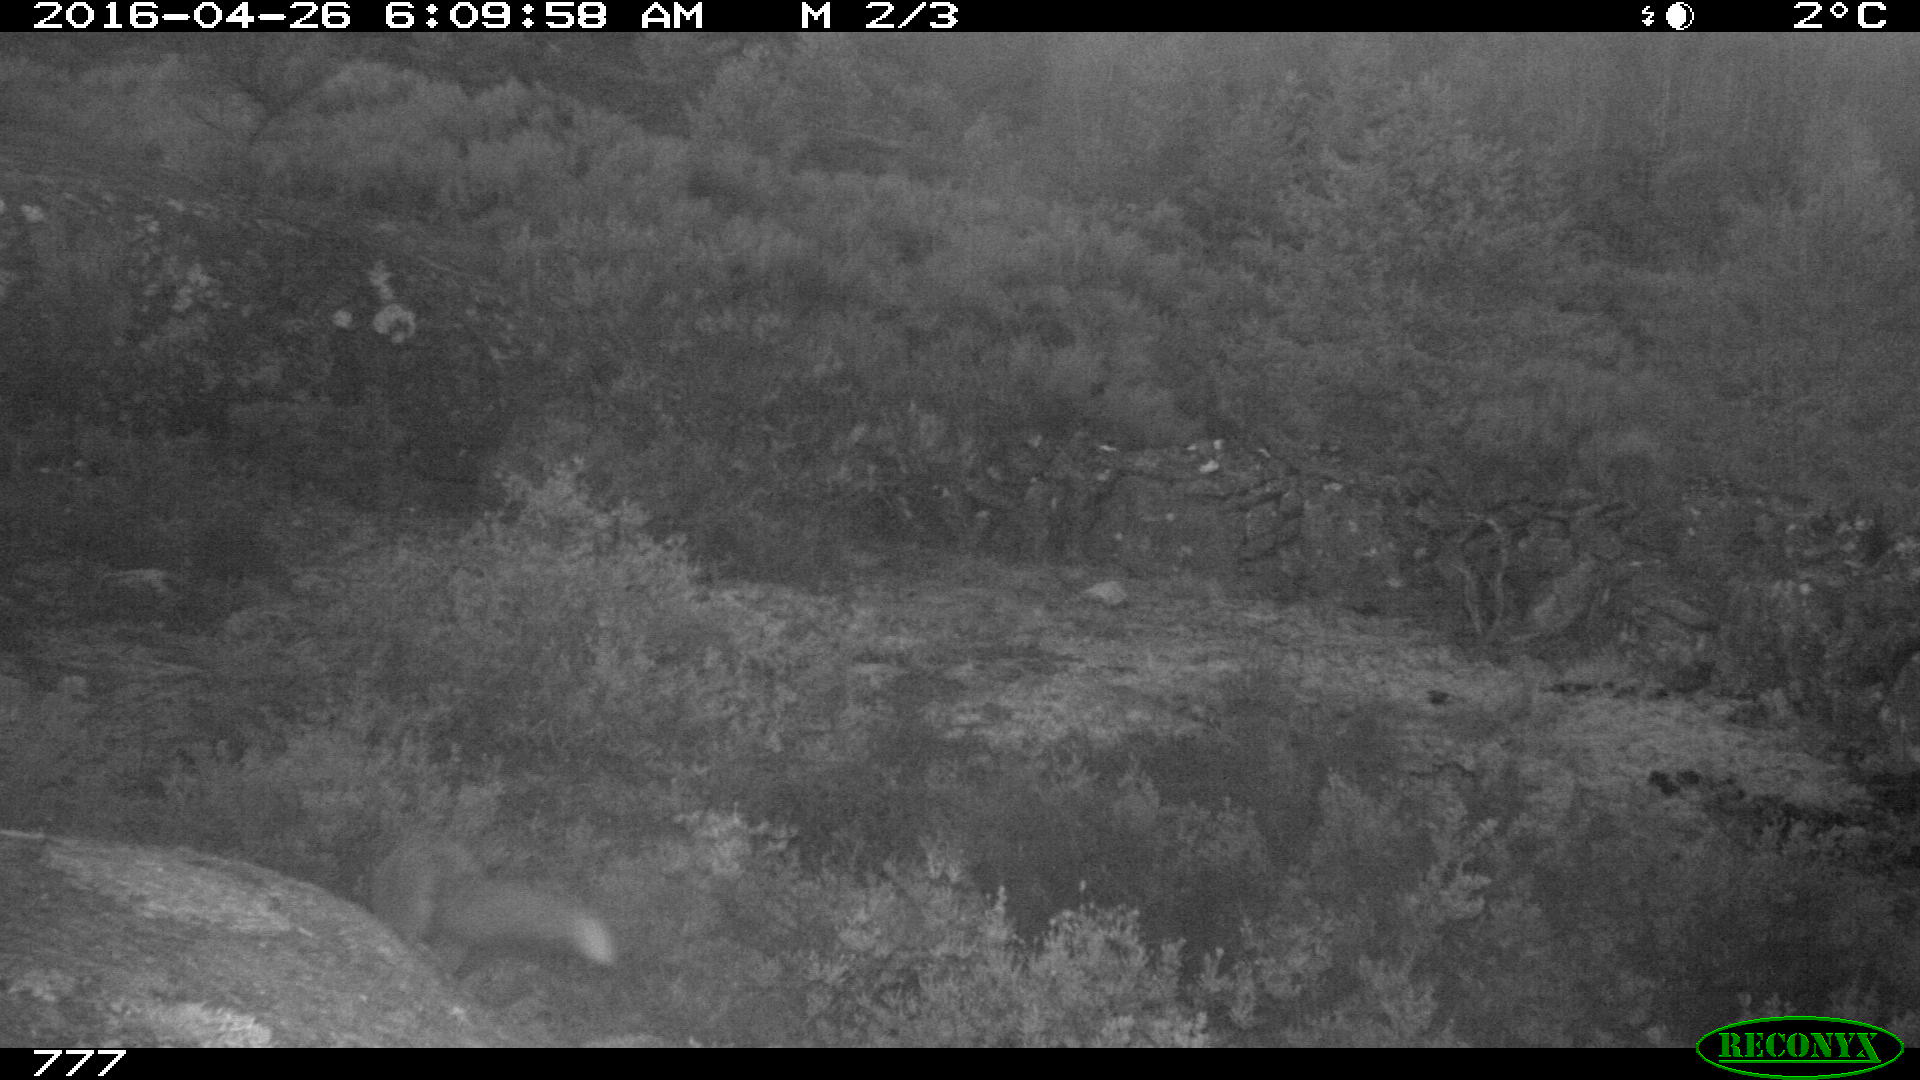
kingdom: Animalia
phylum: Chordata
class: Mammalia
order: Carnivora
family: Canidae
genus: Vulpes
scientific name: Vulpes vulpes
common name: Red fox
